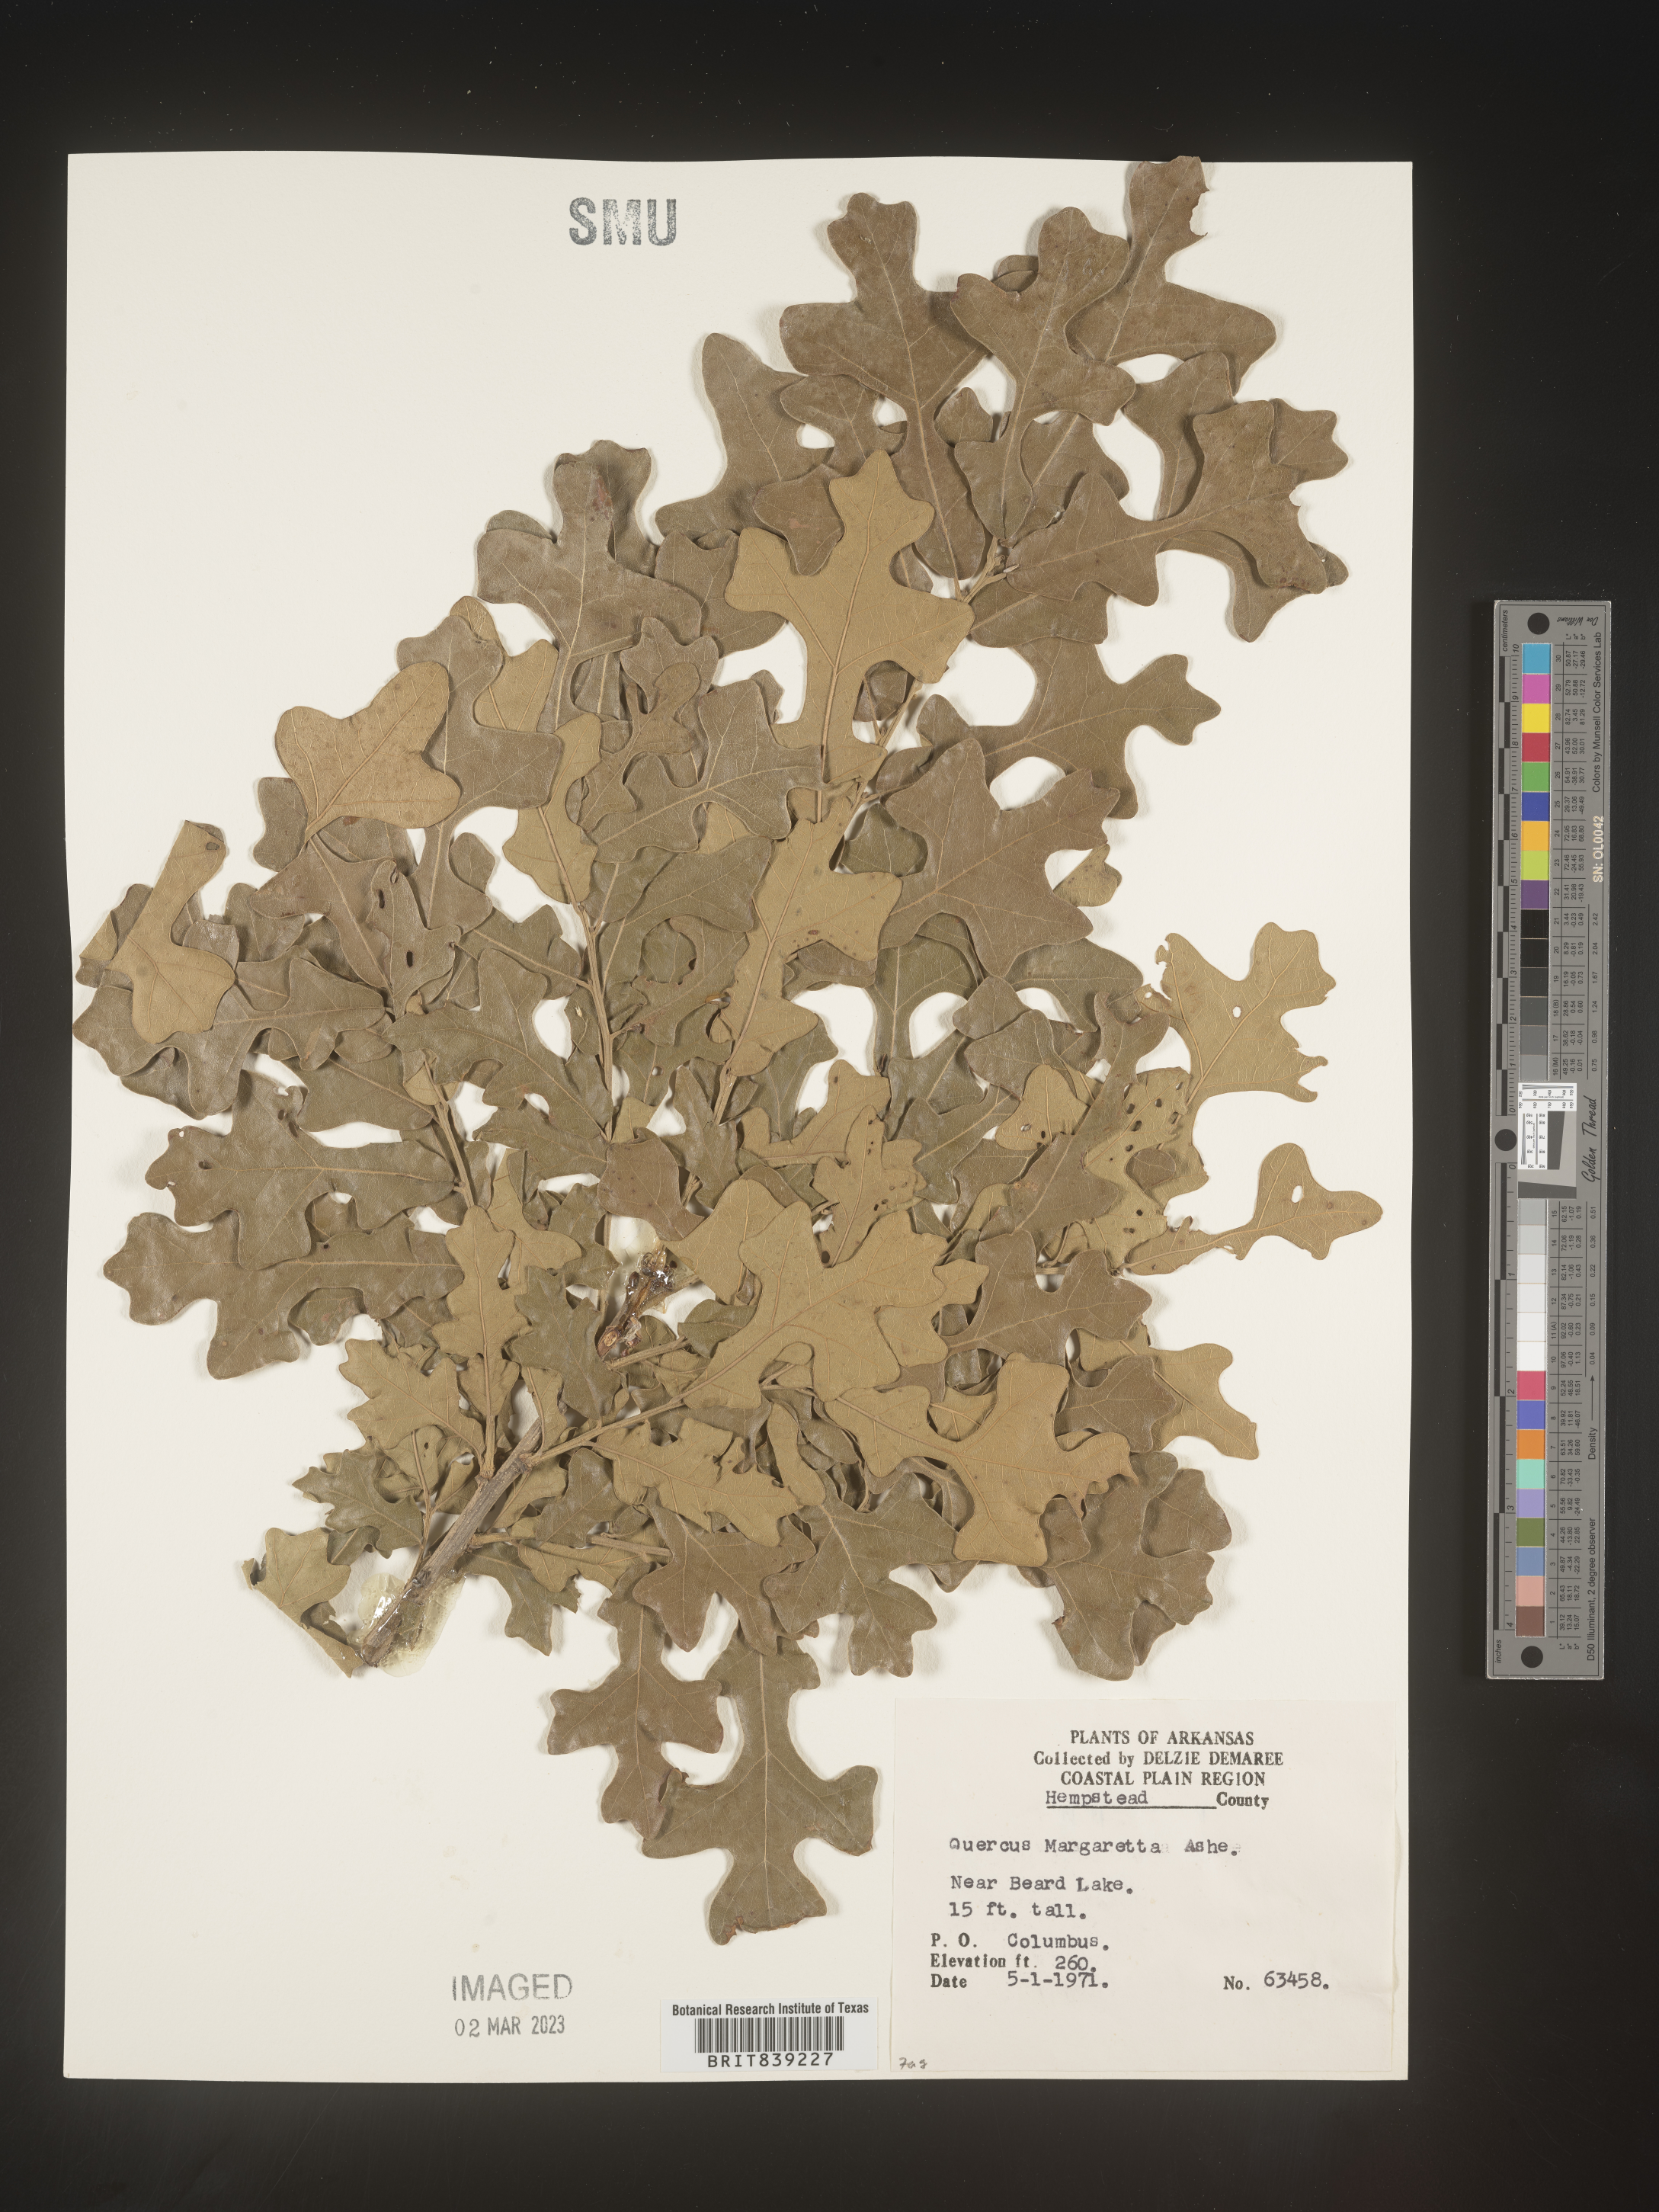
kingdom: Plantae
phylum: Tracheophyta
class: Magnoliopsida
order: Fagales
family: Fagaceae
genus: Quercus
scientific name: Quercus margaretta
